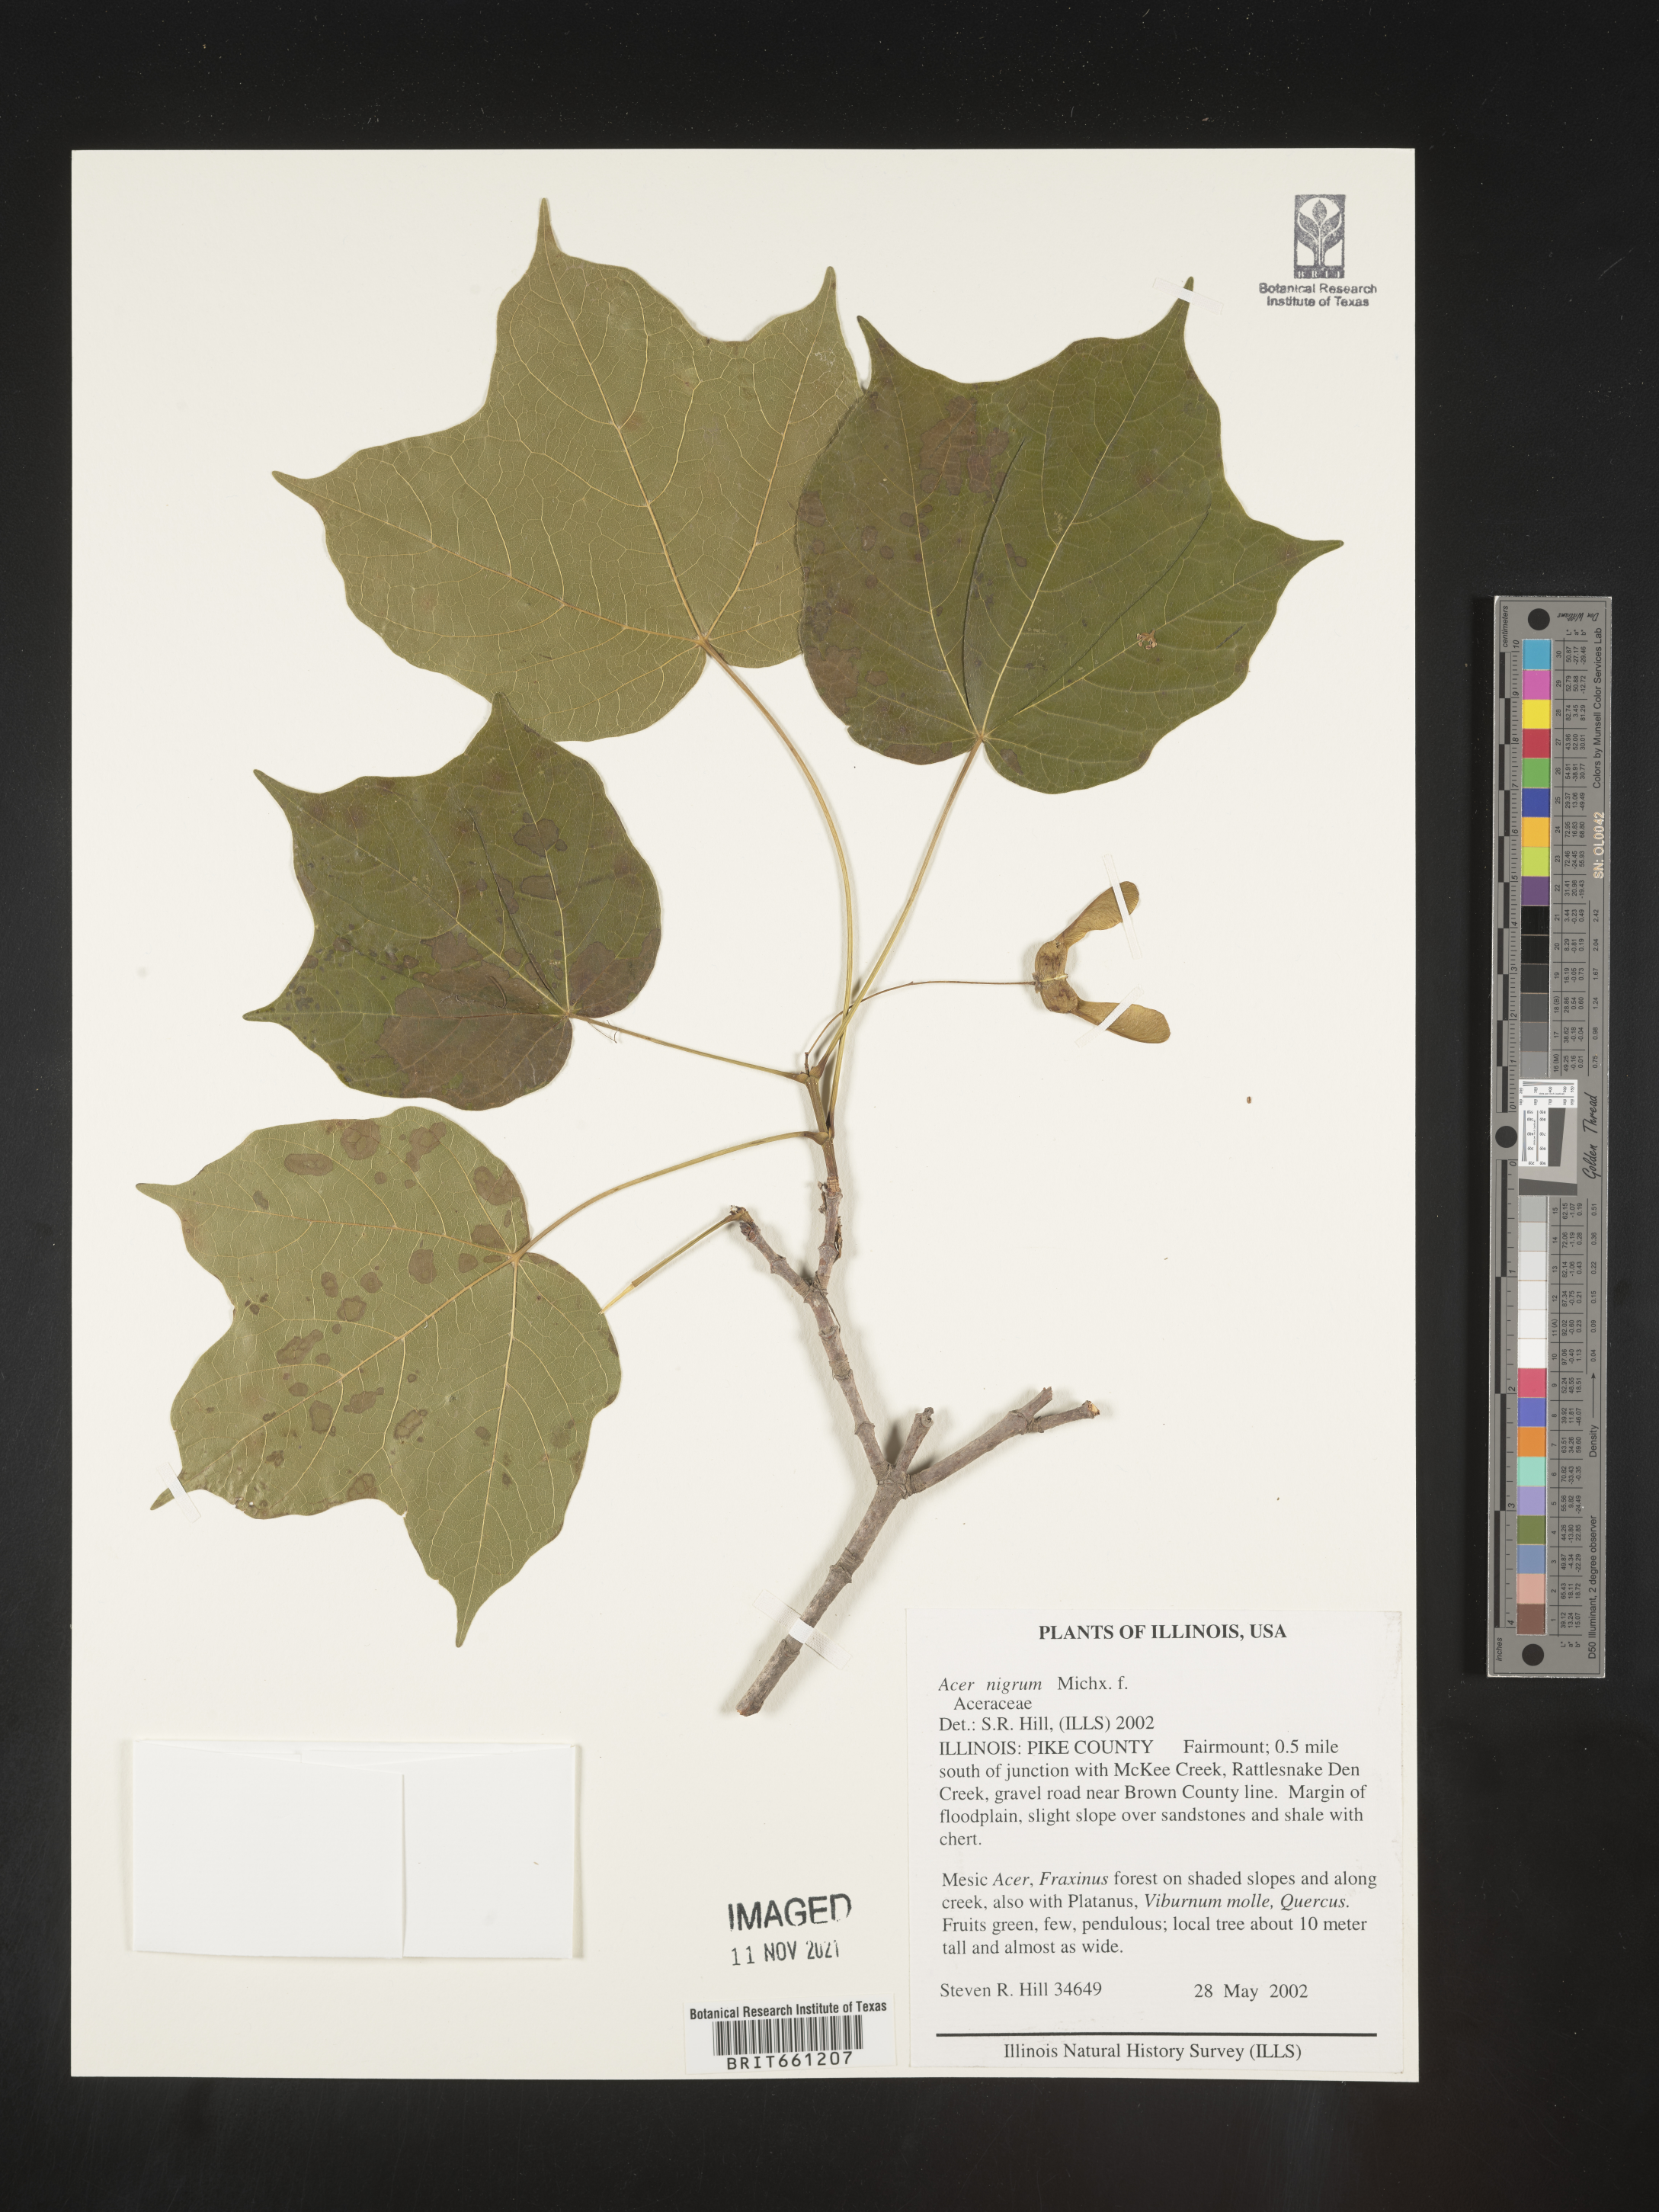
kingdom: Plantae
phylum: Tracheophyta
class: Magnoliopsida
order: Sapindales
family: Sapindaceae
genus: Acer
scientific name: Acer
